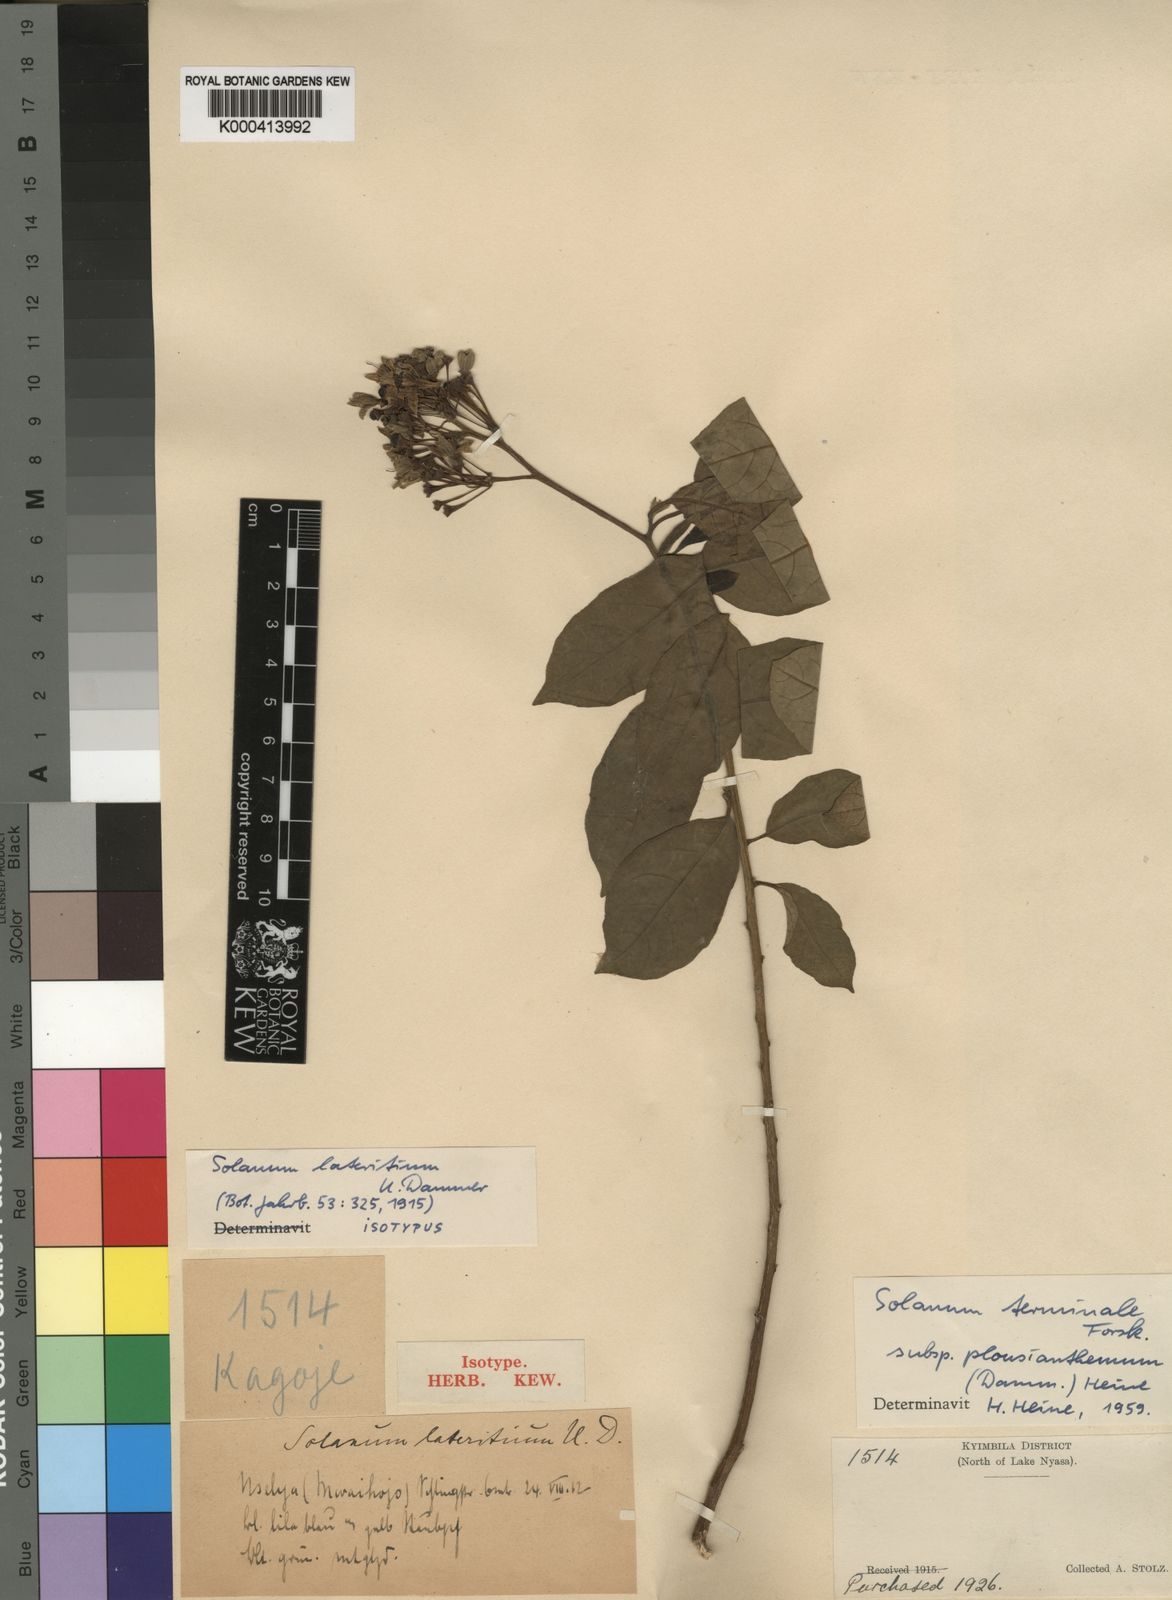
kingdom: Plantae
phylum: Tracheophyta
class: Magnoliopsida
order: Solanales
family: Solanaceae
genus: Solanum
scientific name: Solanum terminale
